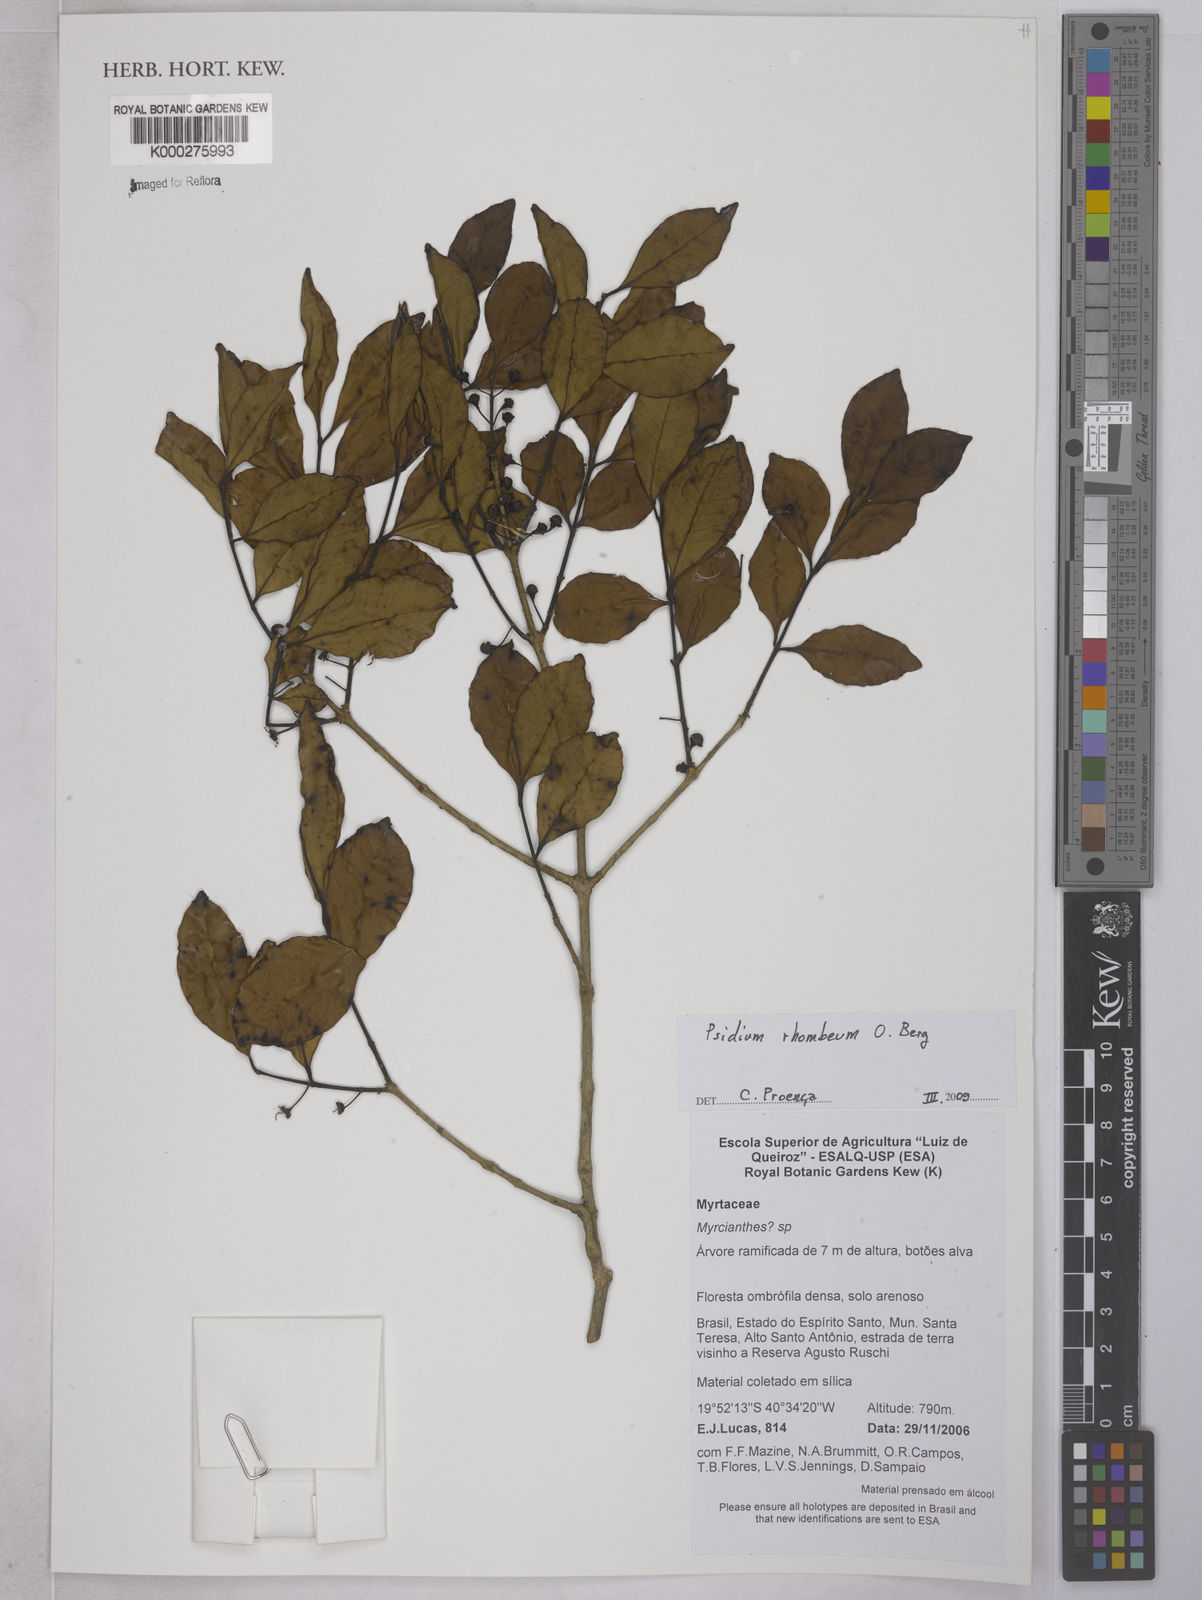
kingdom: Plantae
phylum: Tracheophyta
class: Magnoliopsida
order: Myrtales
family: Myrtaceae
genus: Psidium
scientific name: Psidium rhombeum
